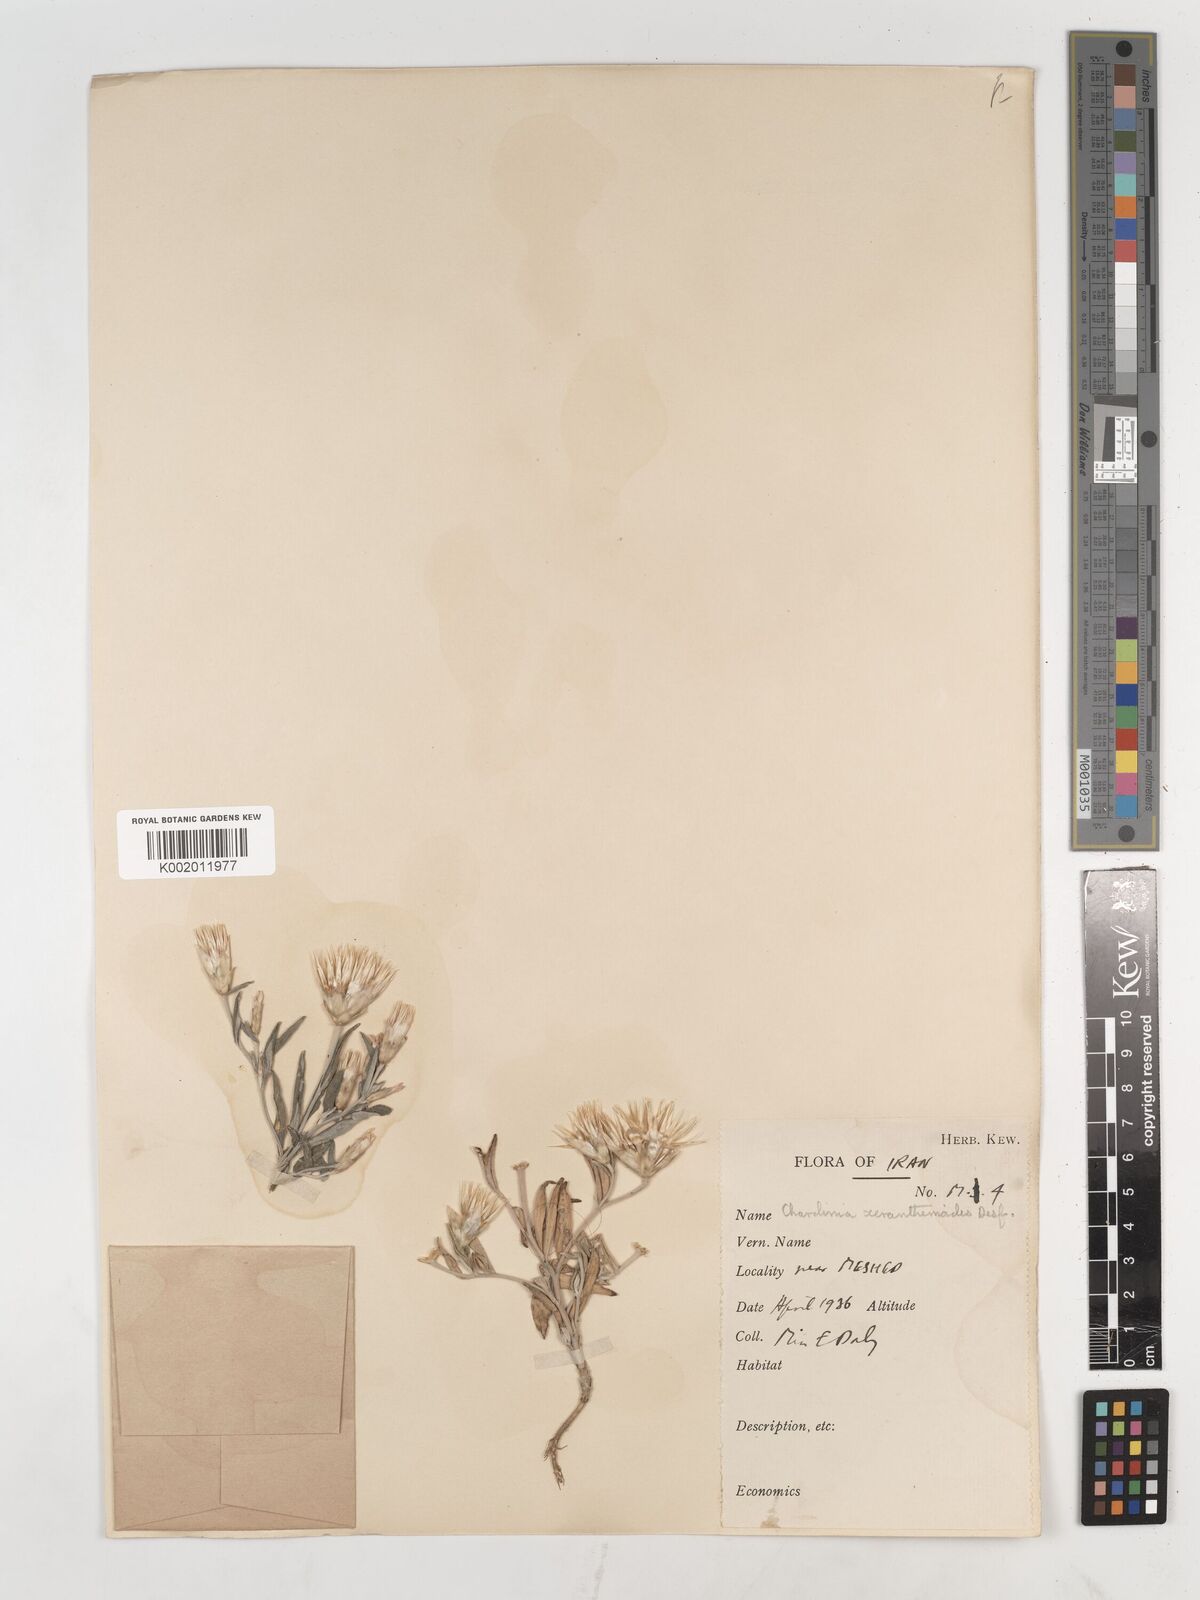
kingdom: Plantae
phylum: Tracheophyta
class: Magnoliopsida
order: Asterales
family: Asteraceae
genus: Chardinia
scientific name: Chardinia orientalis
